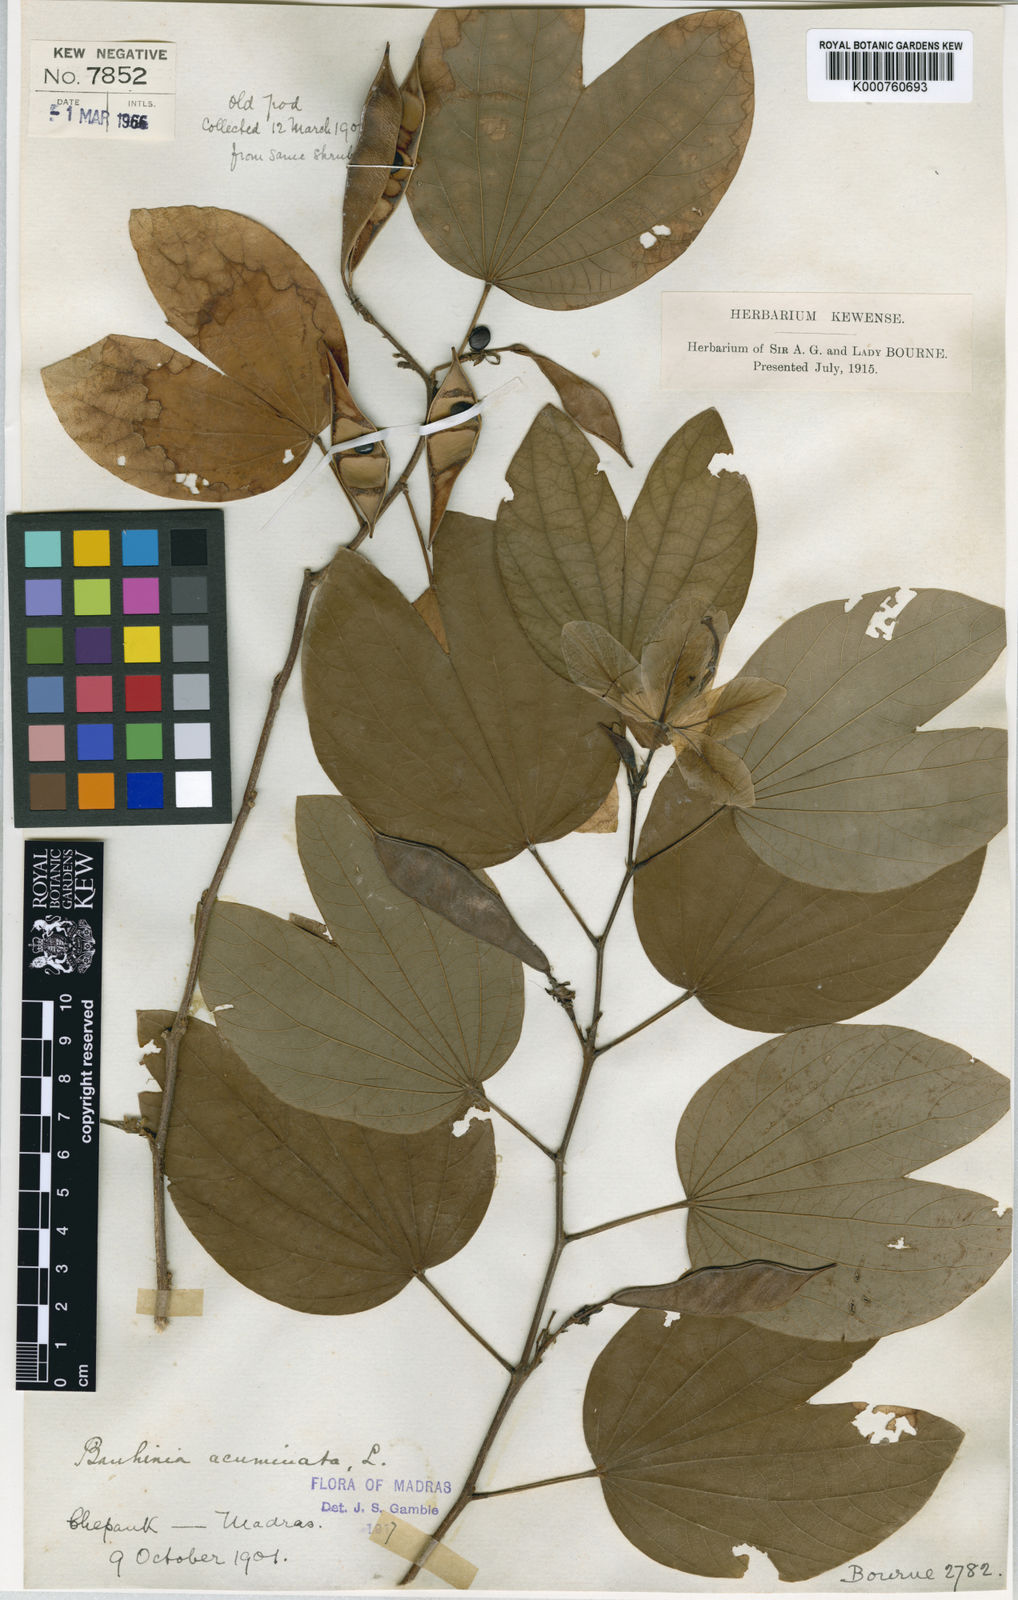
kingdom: Plantae
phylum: Tracheophyta
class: Magnoliopsida
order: Fabales
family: Fabaceae
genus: Bauhinia
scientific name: Bauhinia acuminata
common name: Dwarf white bauhinia
